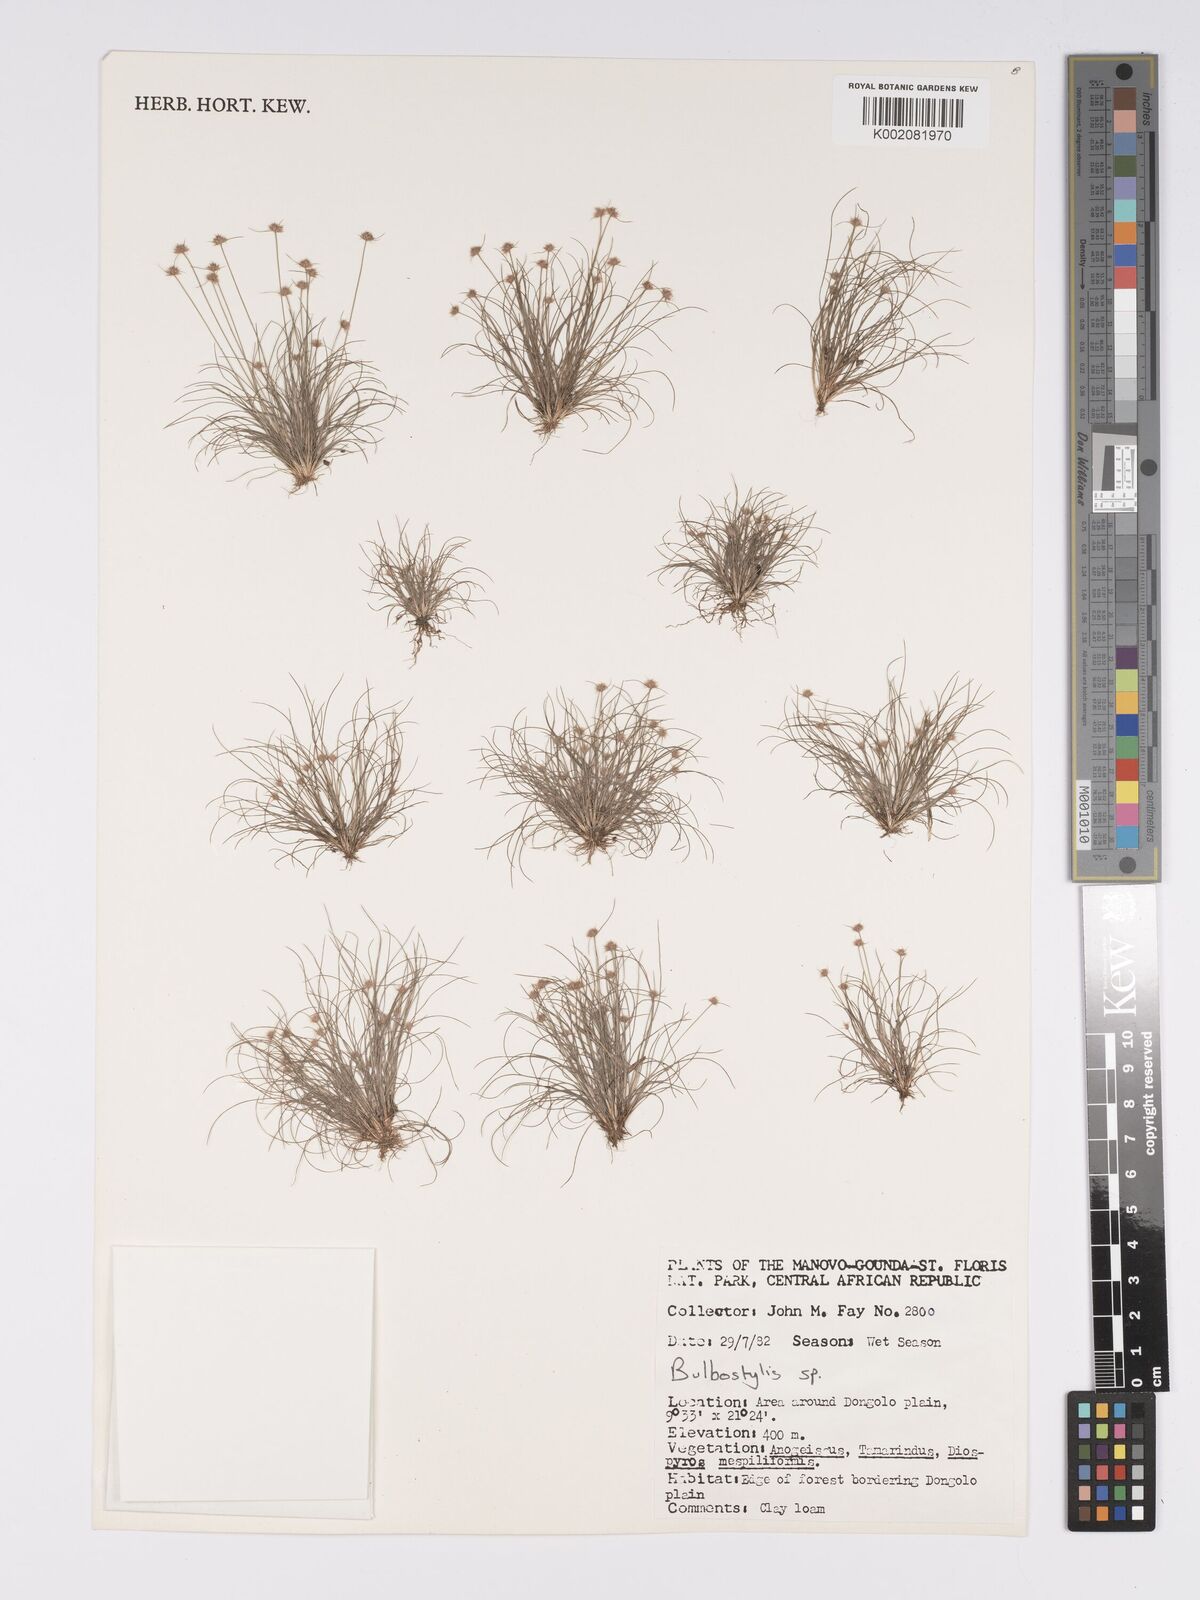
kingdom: Plantae
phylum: Tracheophyta
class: Magnoliopsida
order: Asterales
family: Asteraceae
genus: Bulbostylis
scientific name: Bulbostylis
